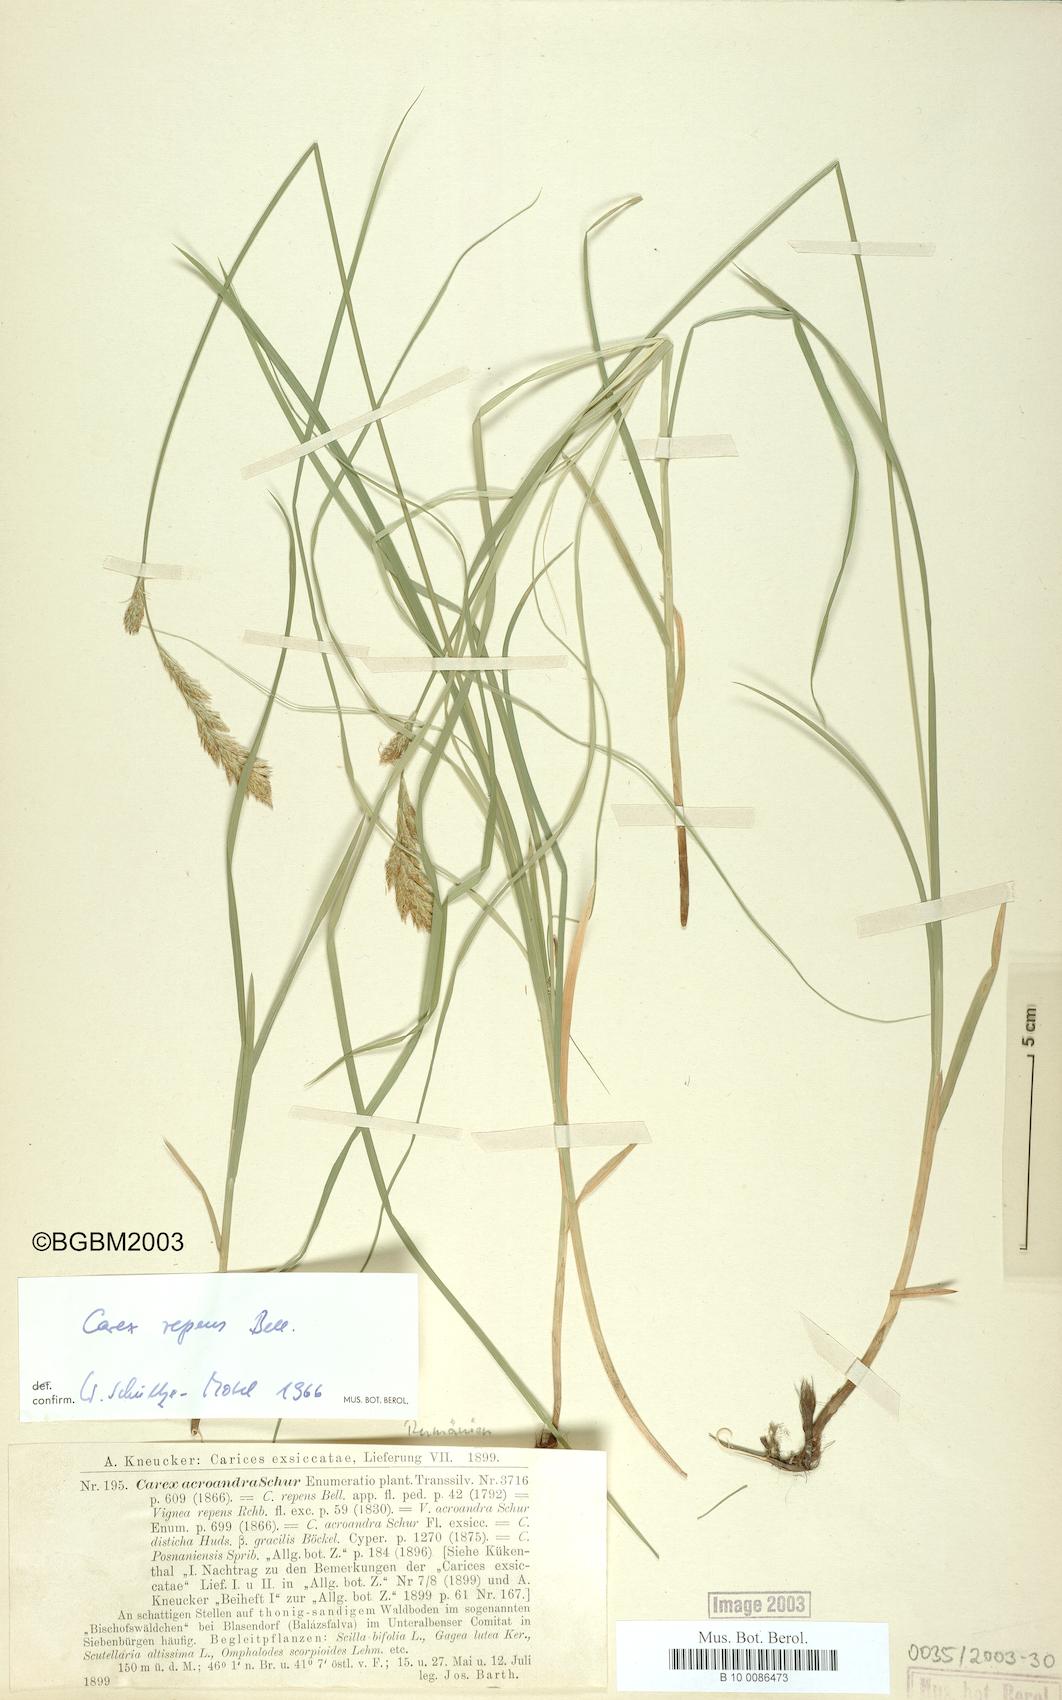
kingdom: Plantae
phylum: Tracheophyta
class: Liliopsida
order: Poales
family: Cyperaceae
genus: Carex
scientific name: Carex repens
